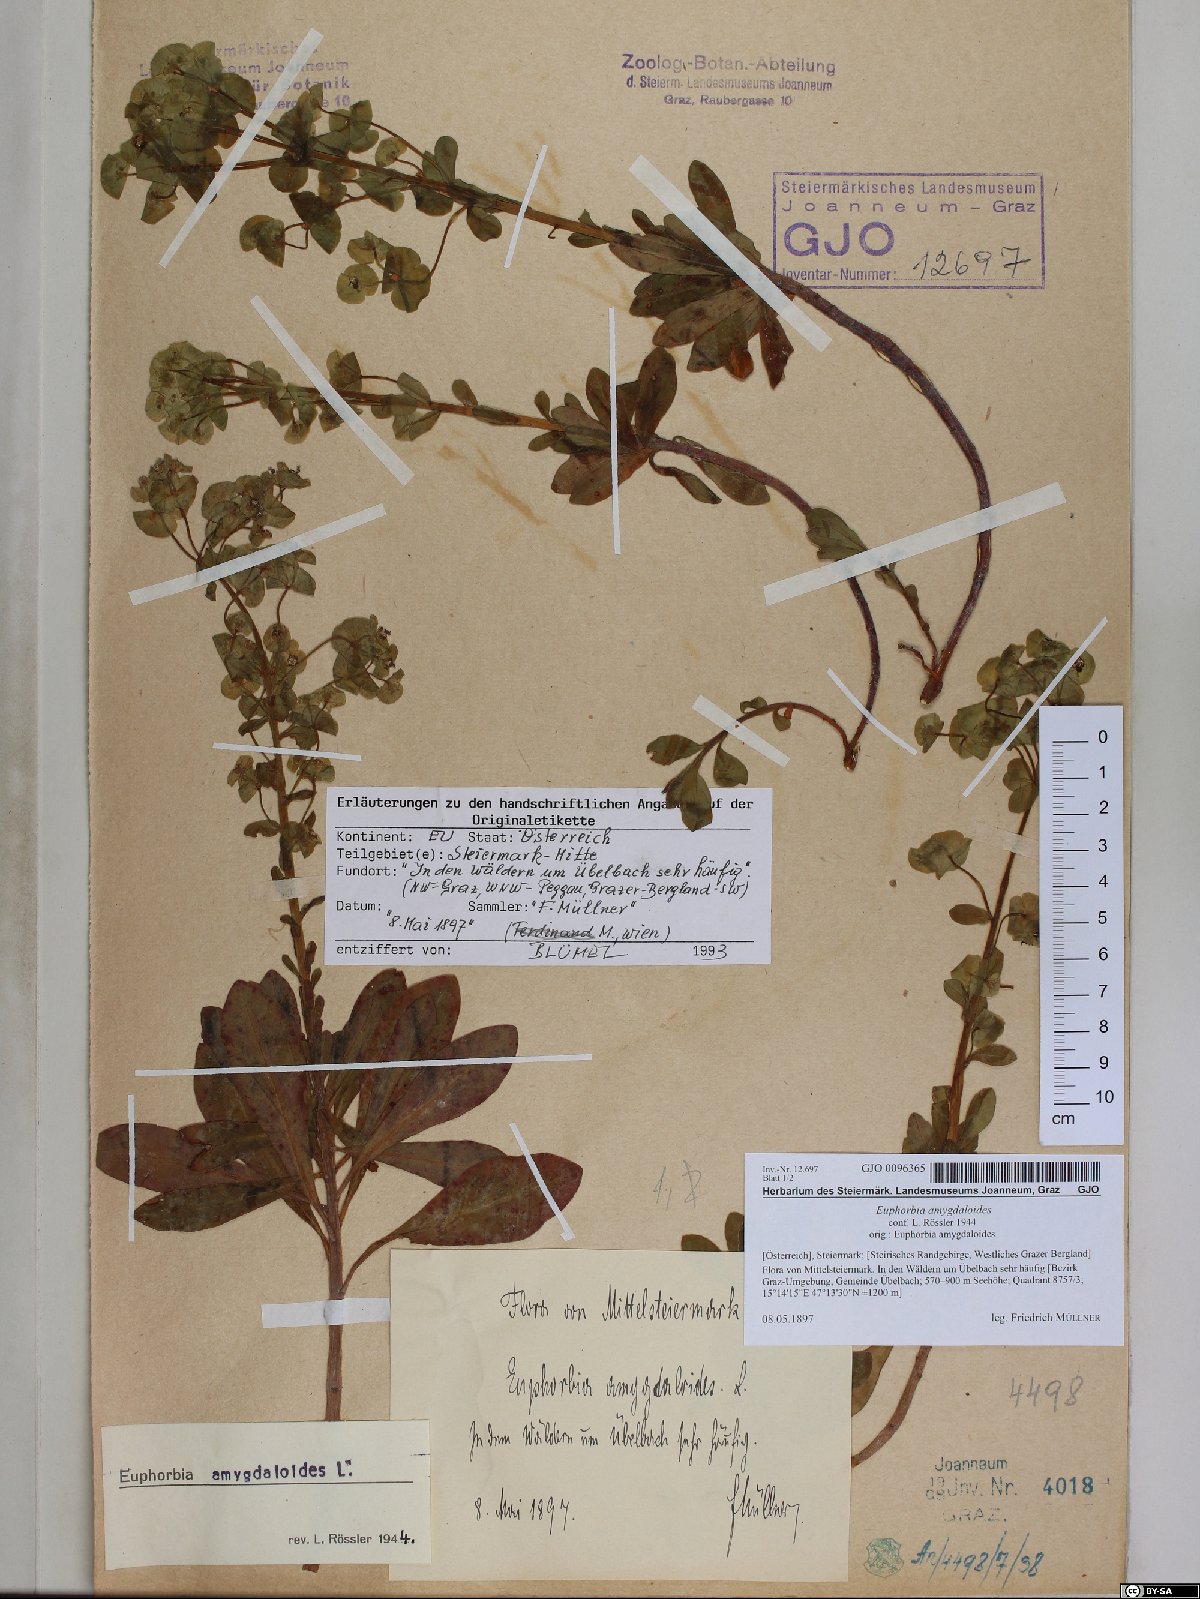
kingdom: Plantae
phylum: Tracheophyta
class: Magnoliopsida
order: Malpighiales
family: Euphorbiaceae
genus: Euphorbia
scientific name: Euphorbia amygdaloides
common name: Wood spurge
